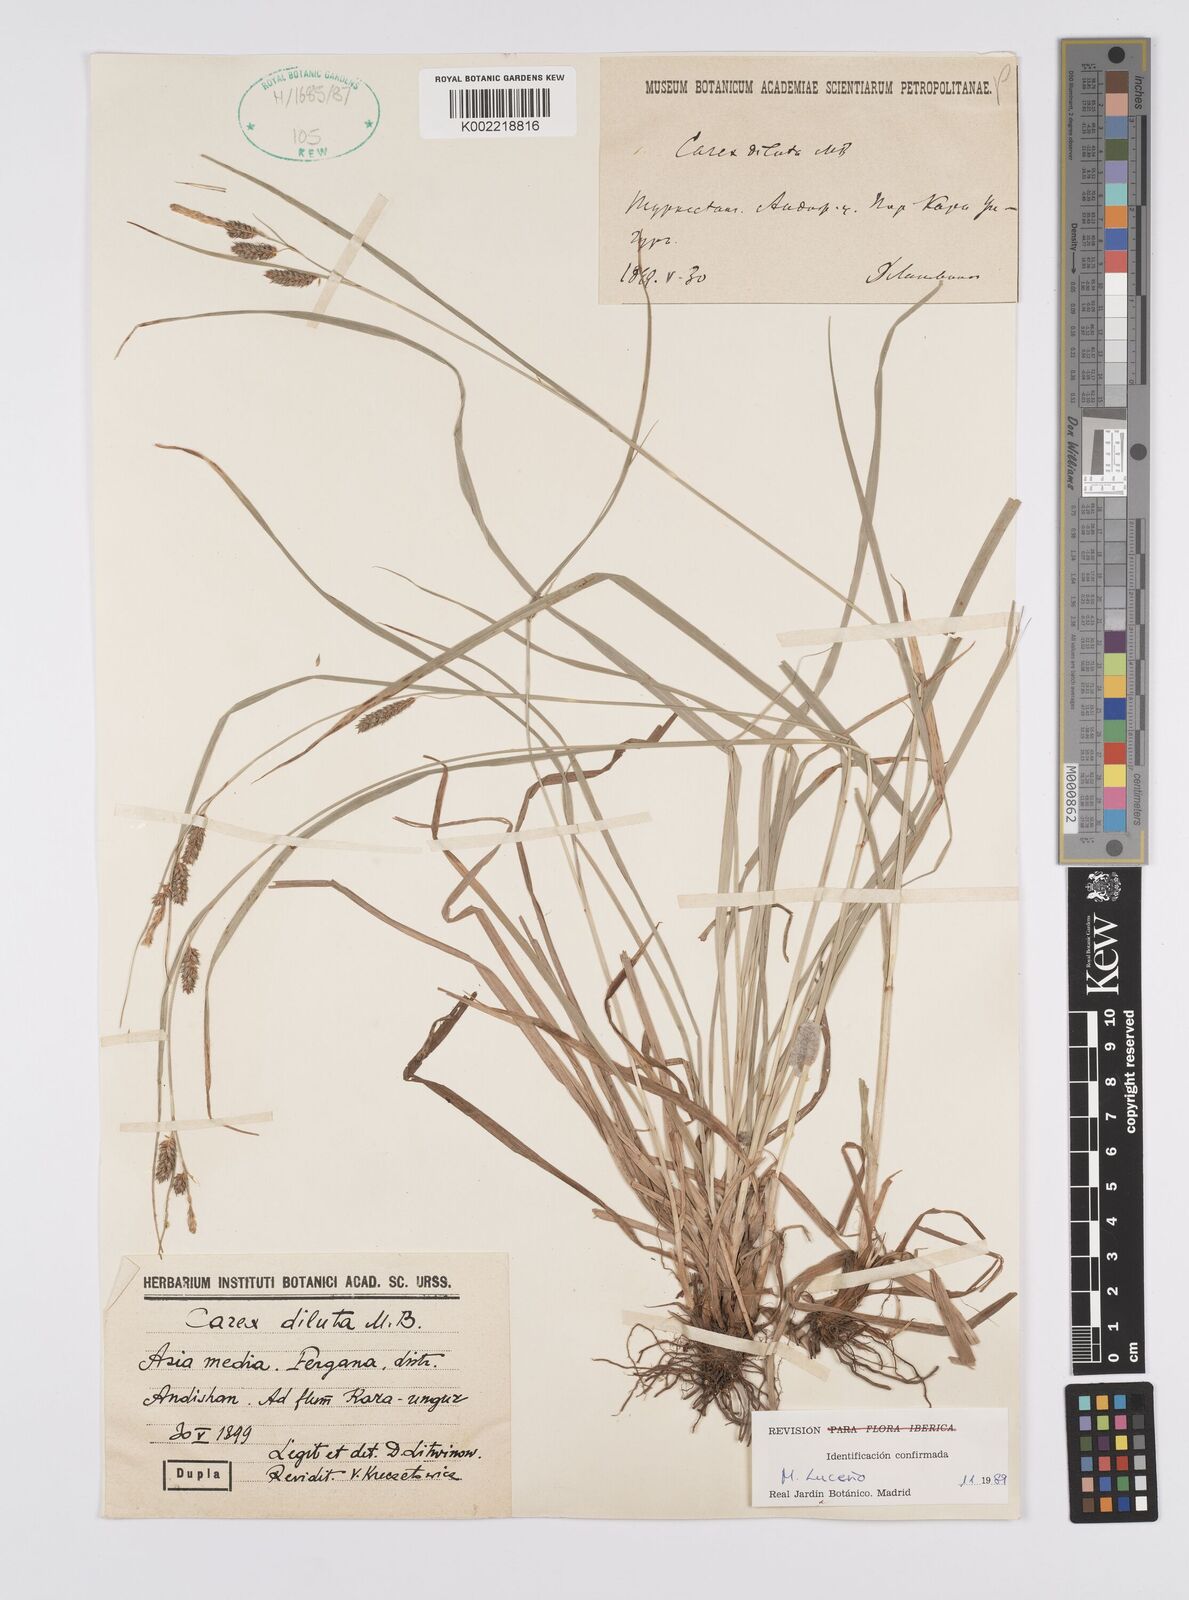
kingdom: Plantae
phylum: Tracheophyta
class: Liliopsida
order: Poales
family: Cyperaceae
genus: Carex
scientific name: Carex diluta
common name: Sedge
